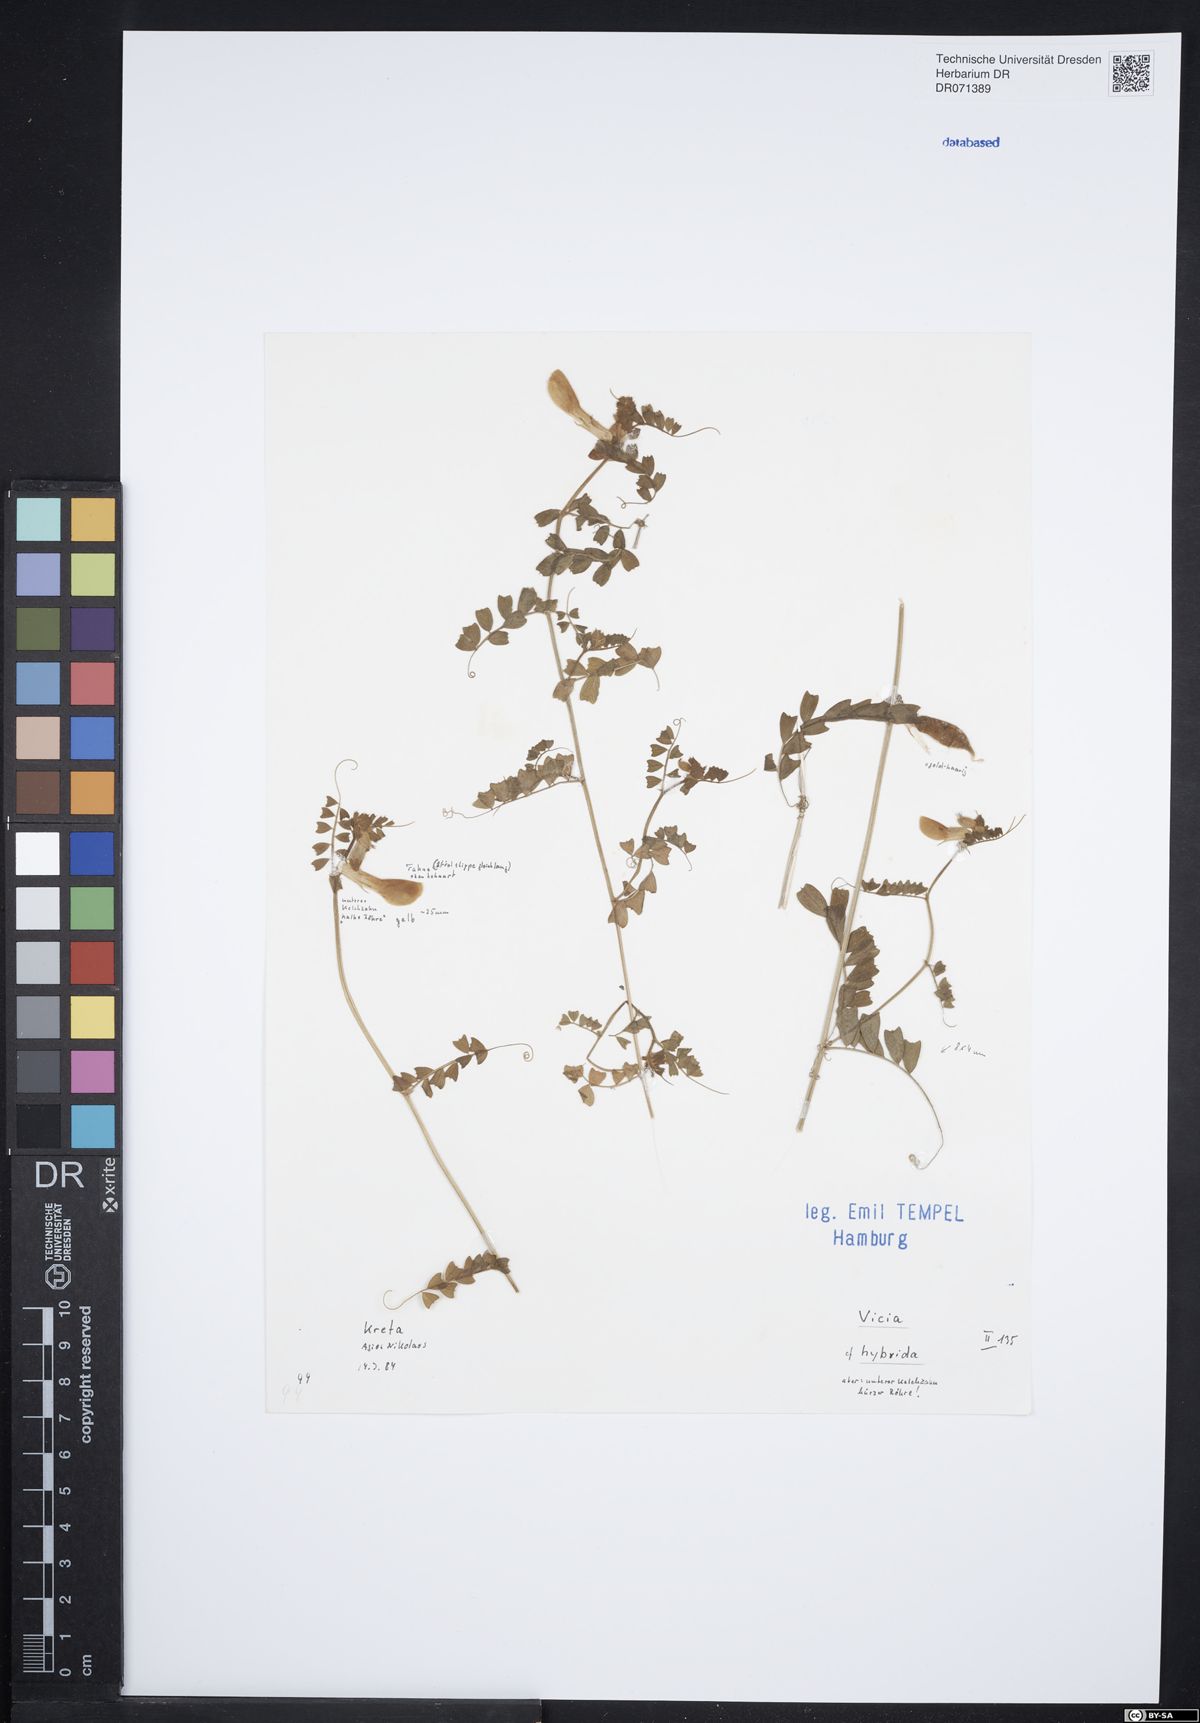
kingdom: Plantae
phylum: Tracheophyta
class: Magnoliopsida
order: Fabales
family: Fabaceae
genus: Vicia
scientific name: Vicia hybrida
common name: Hairy yellow vetch
